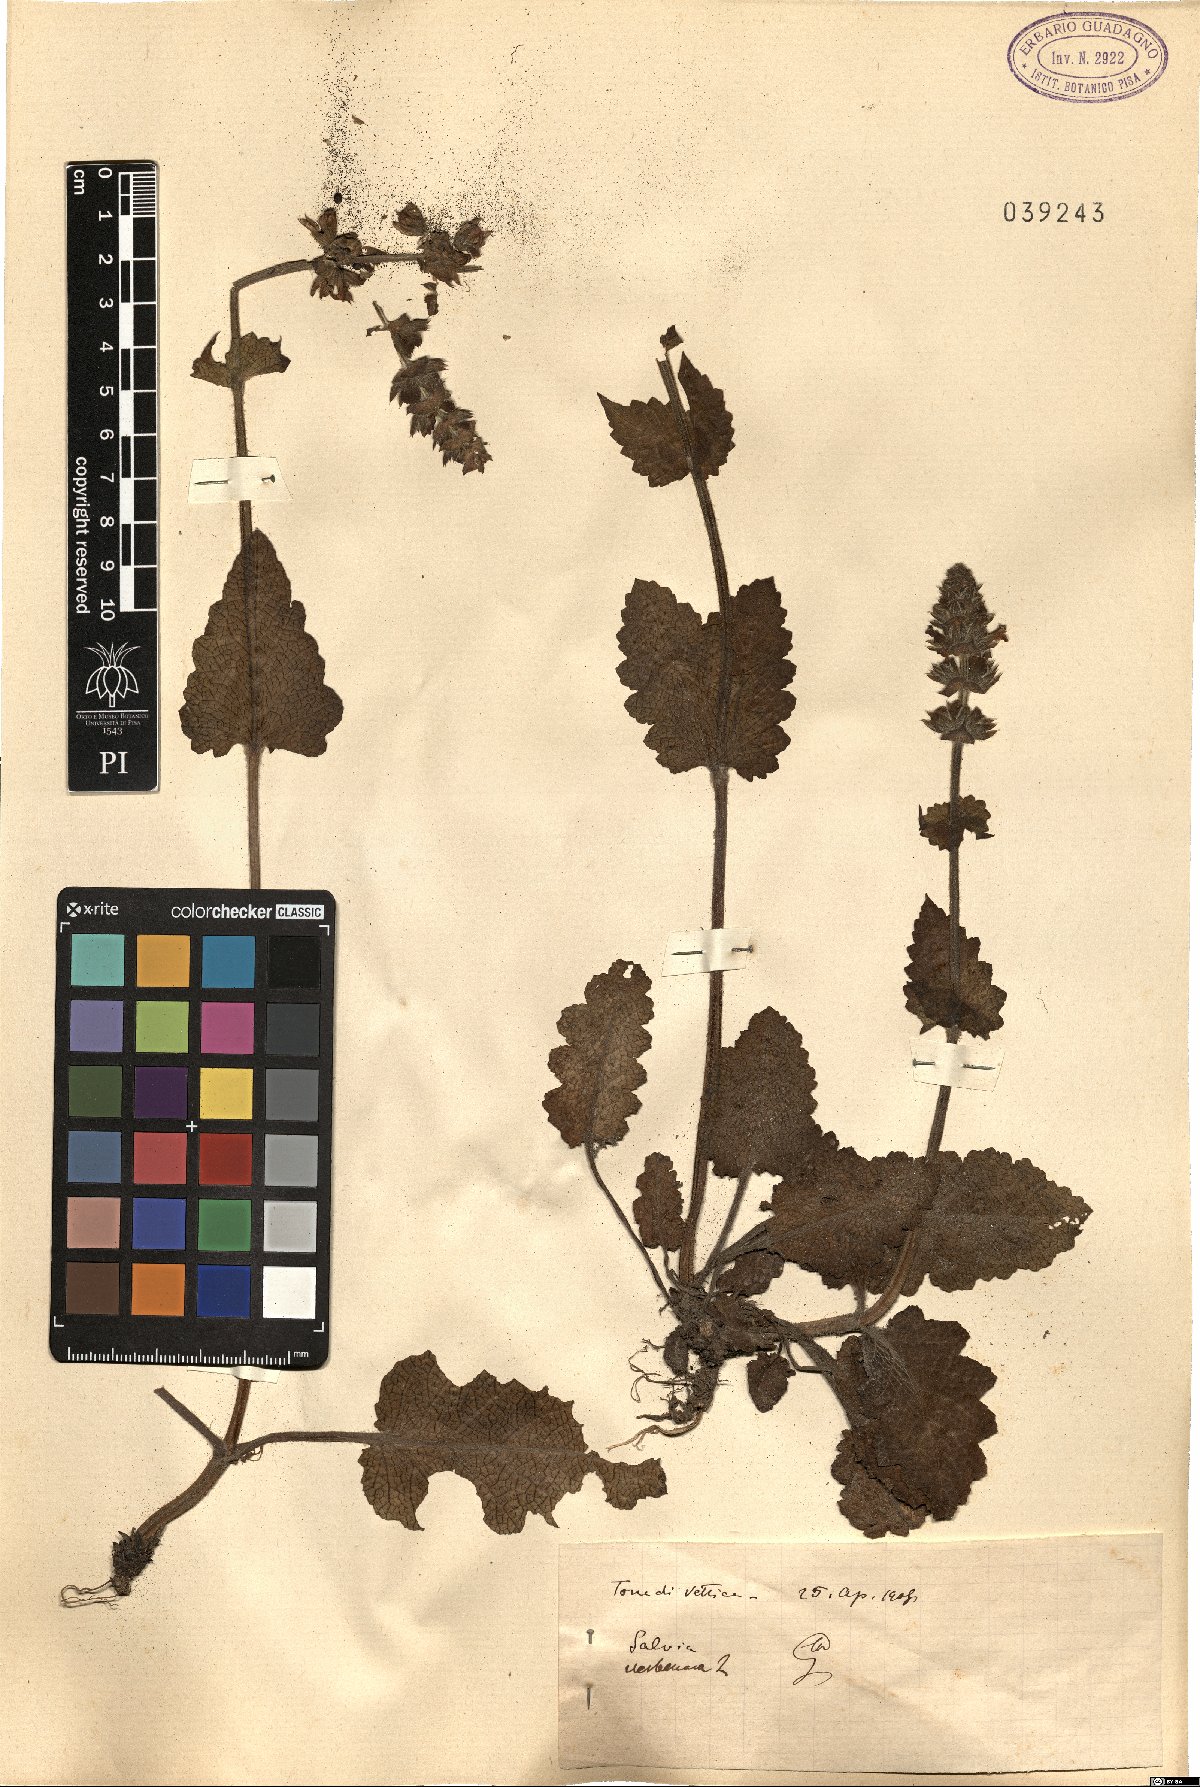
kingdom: Plantae
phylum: Tracheophyta
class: Magnoliopsida
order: Lamiales
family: Lamiaceae
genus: Salvia
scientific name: Salvia verbenaca
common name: Wild clary
